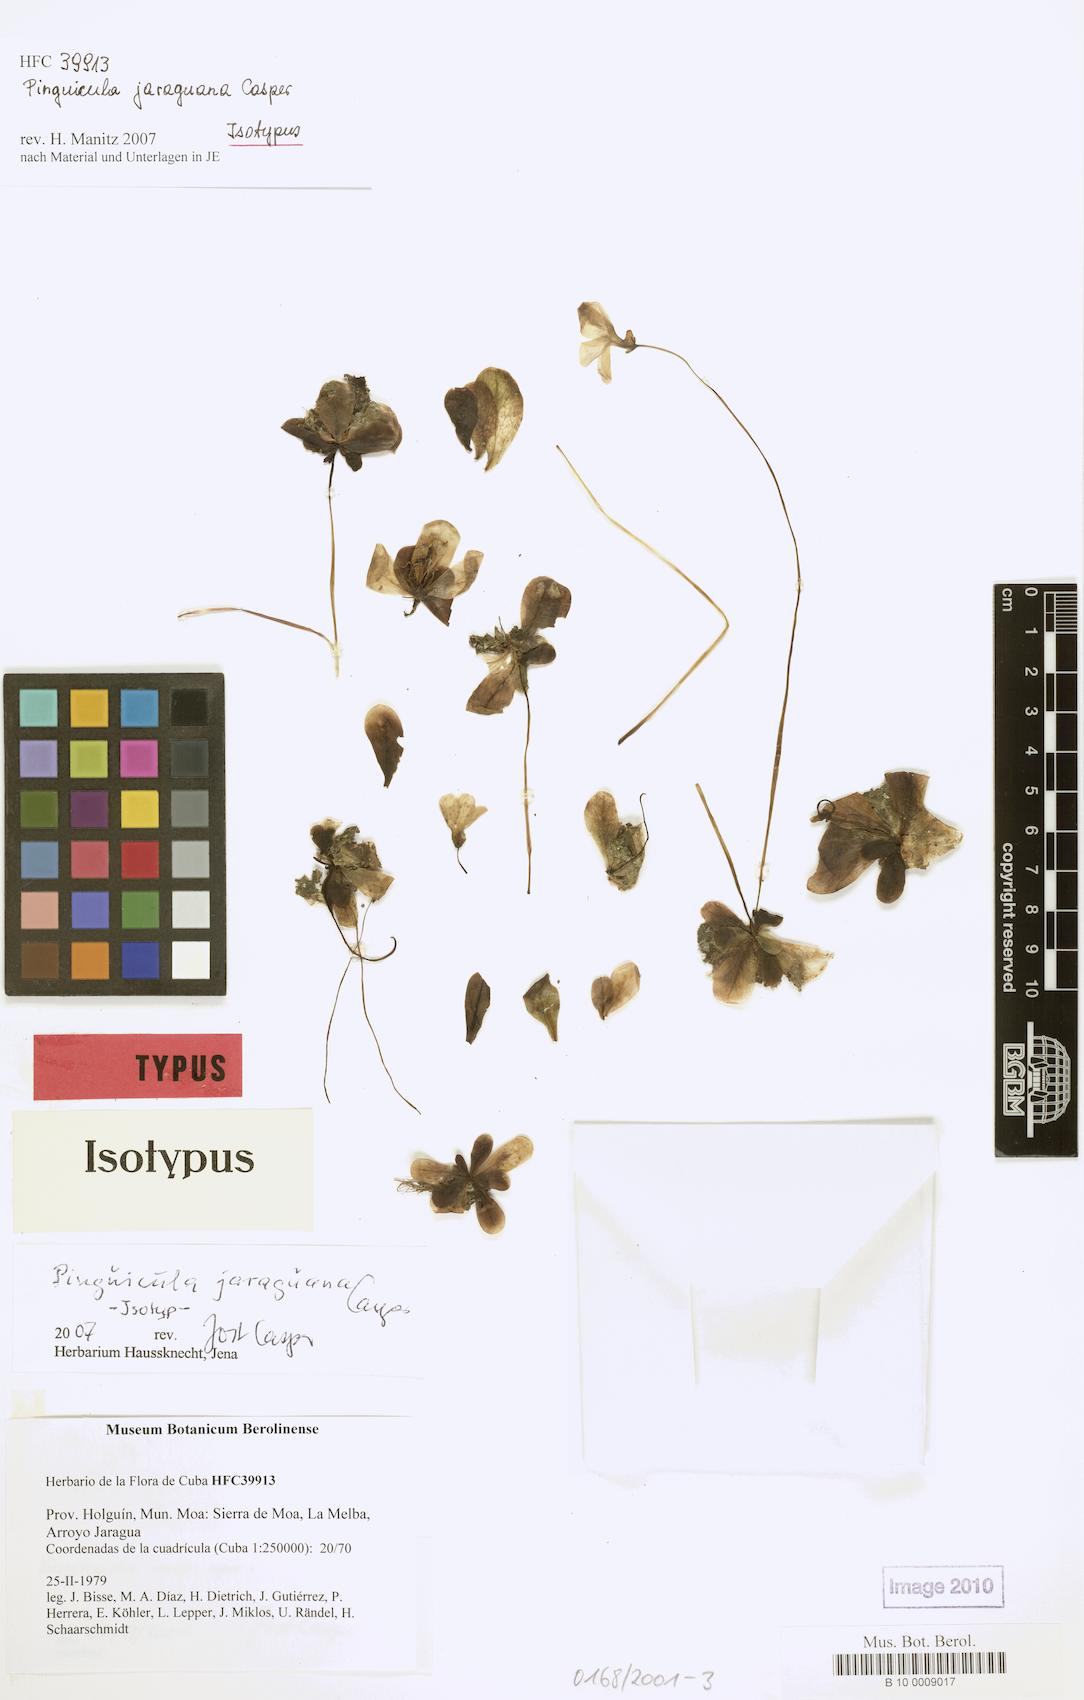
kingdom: Plantae
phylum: Tracheophyta
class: Magnoliopsida
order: Lamiales
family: Lentibulariaceae
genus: Pinguicula
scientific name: Pinguicula jaraguana
